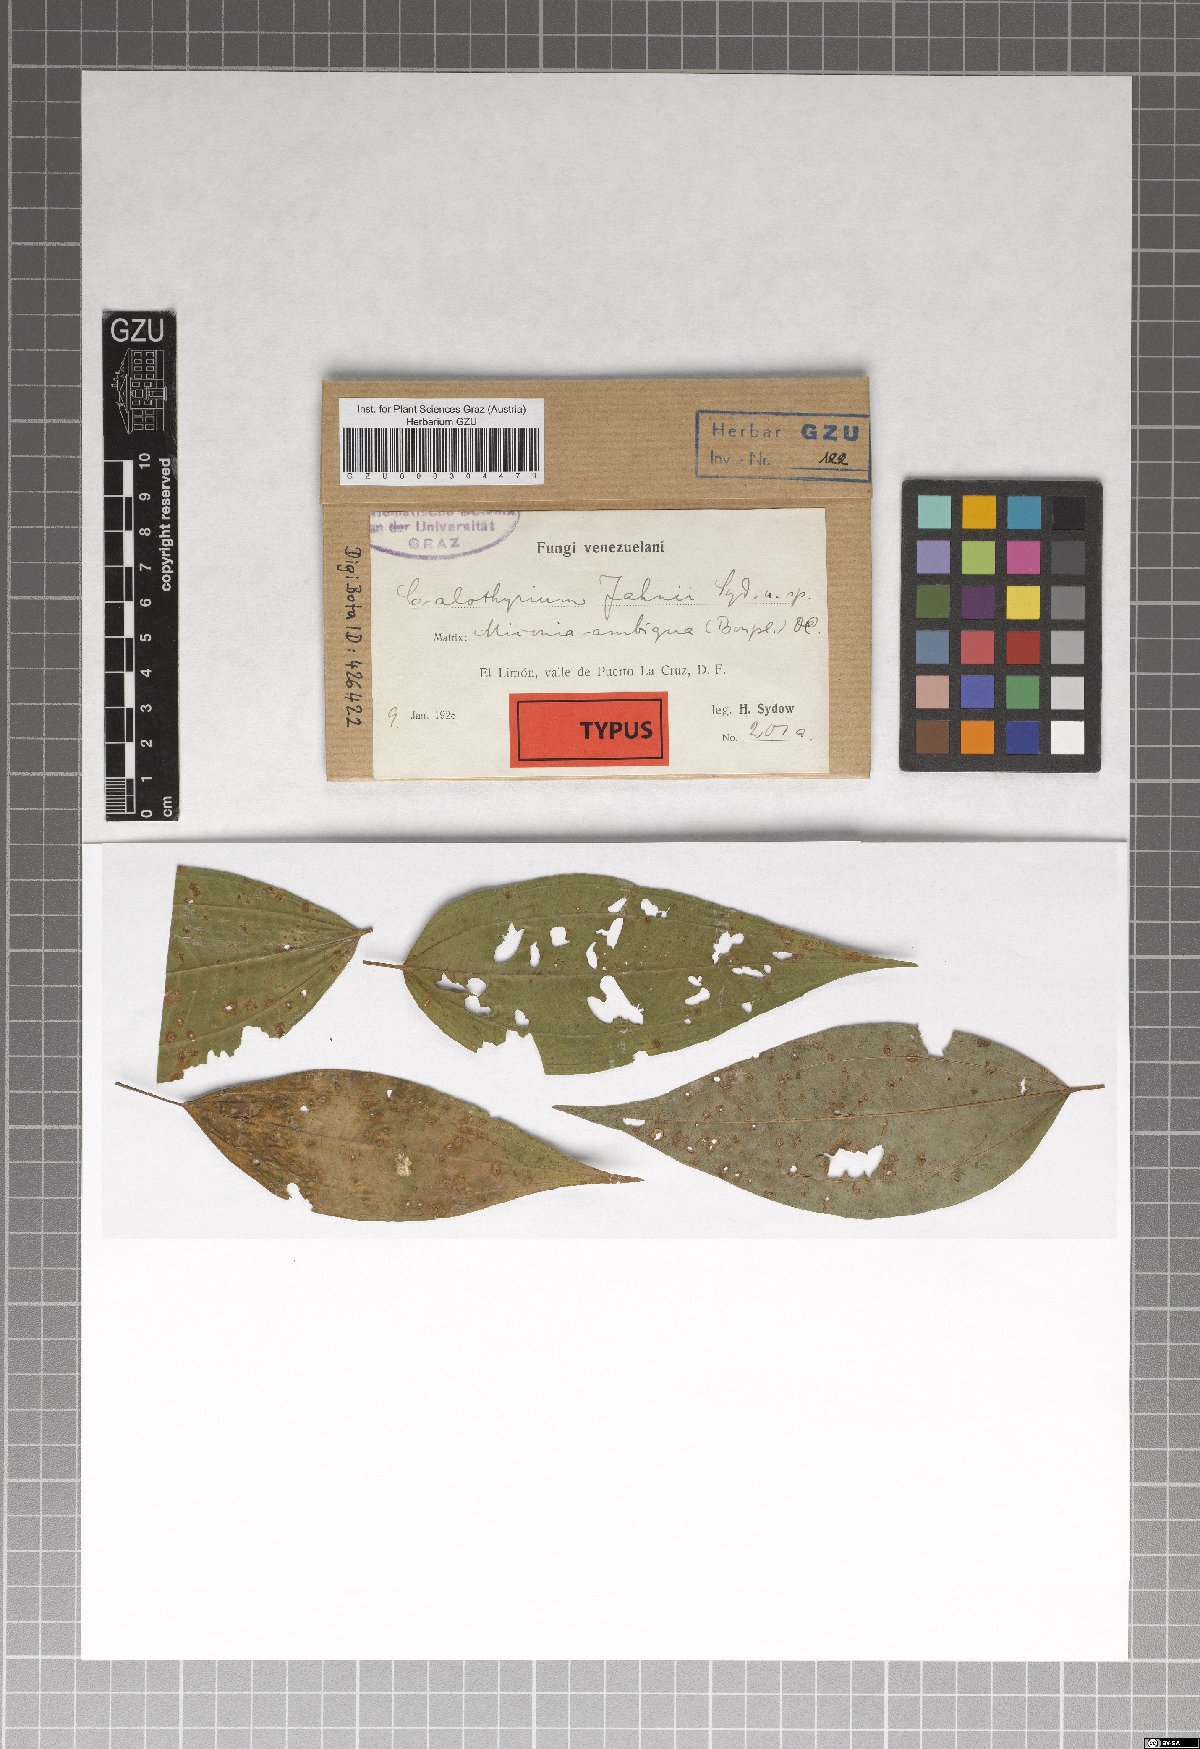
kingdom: Fungi
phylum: Ascomycota
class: Dothideomycetes
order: Microthyriales
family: Microthyriaceae
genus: Calothyrium
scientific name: Calothyrium jahnii
